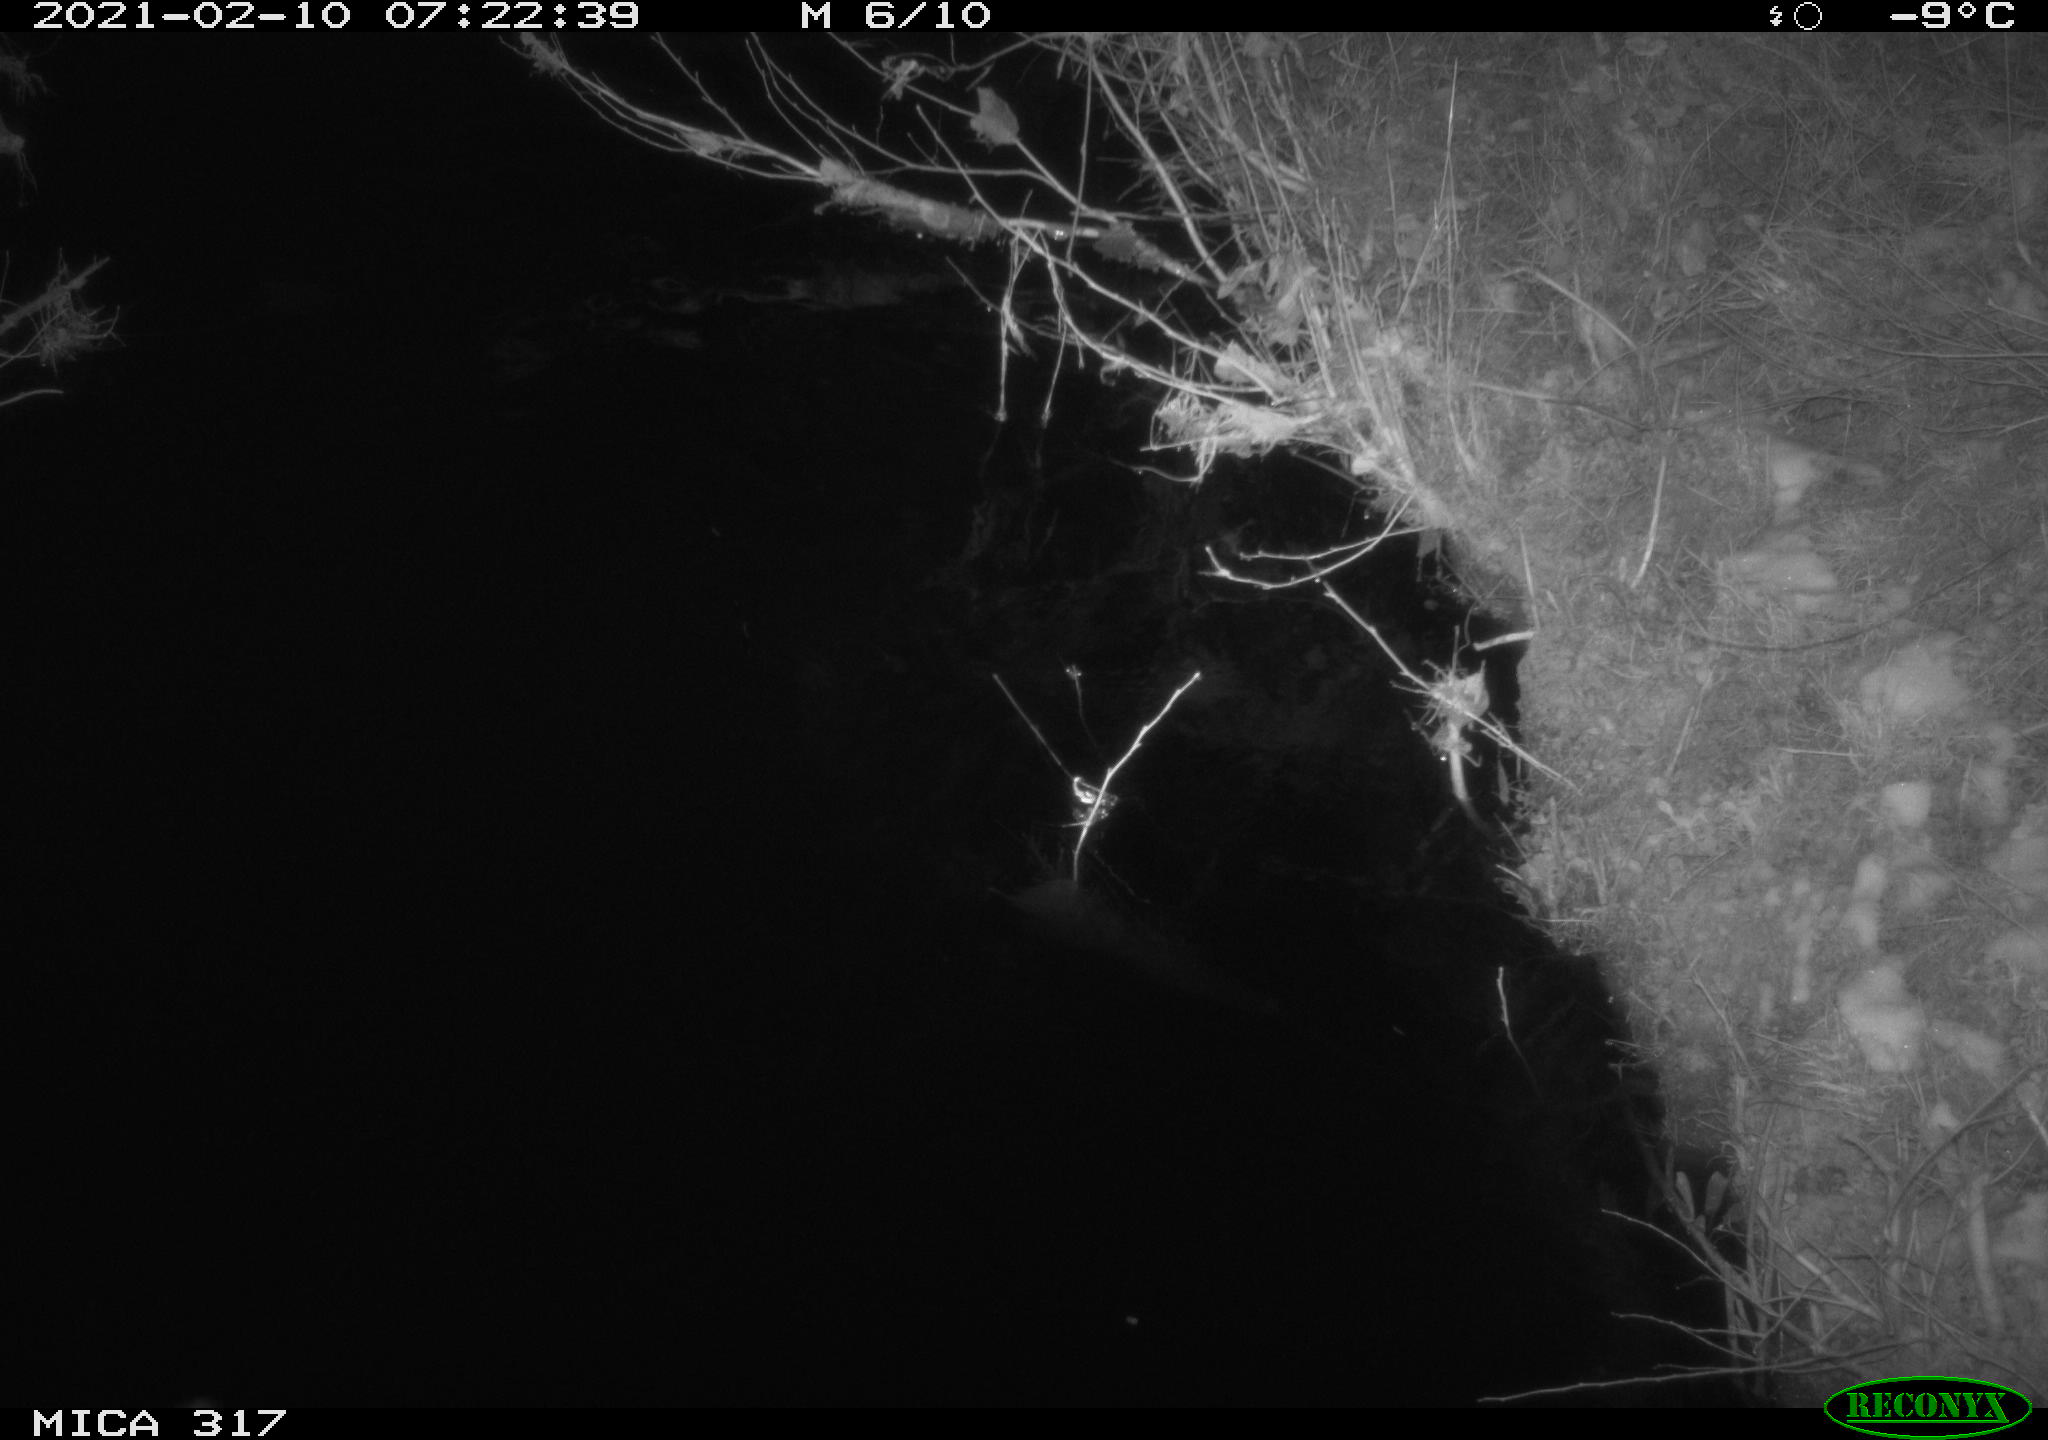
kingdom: Animalia
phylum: Chordata
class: Aves
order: Gruiformes
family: Rallidae
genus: Fulica
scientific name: Fulica atra
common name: Eurasian coot
